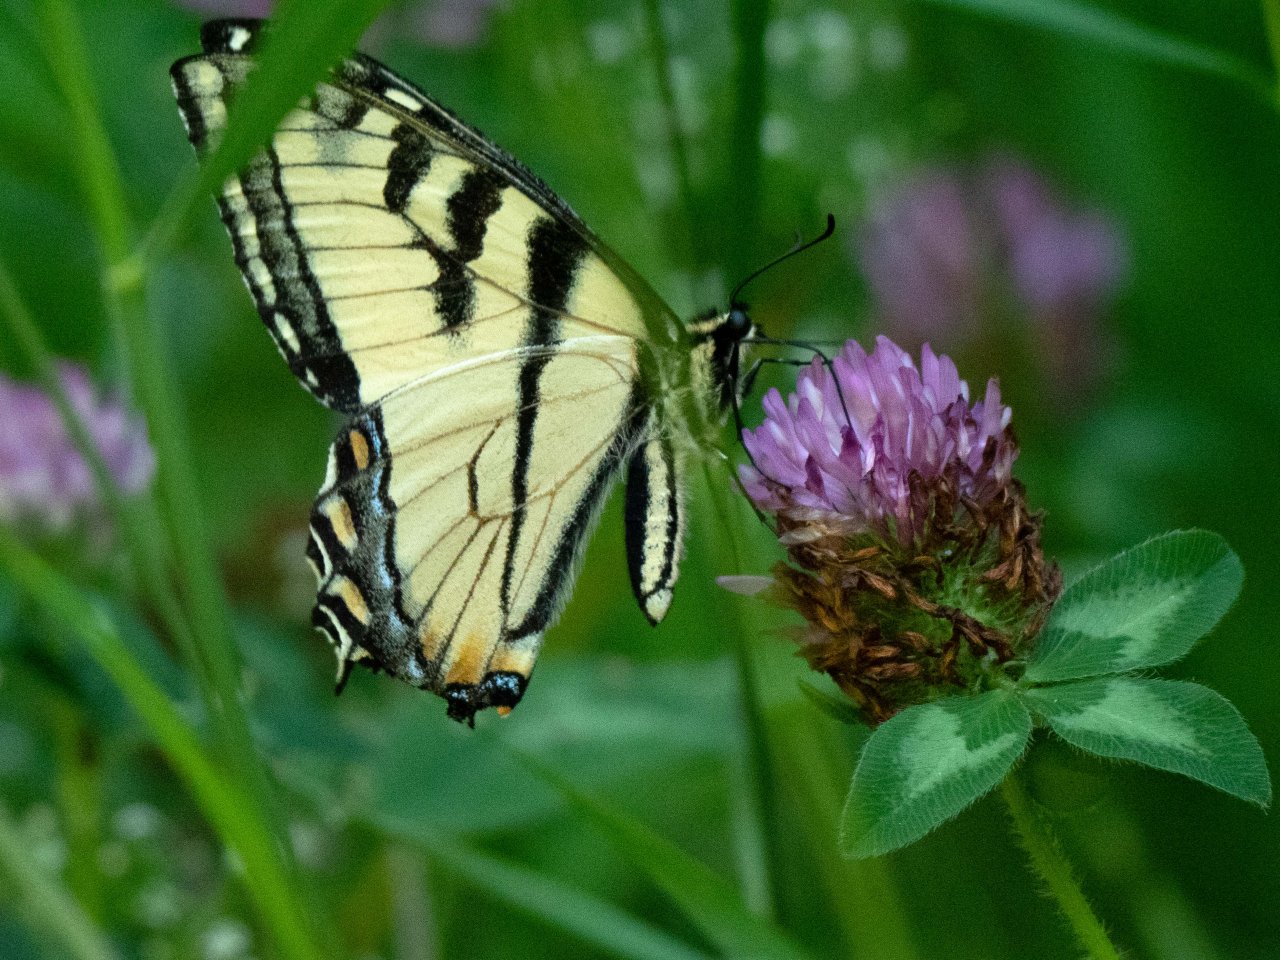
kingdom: Animalia
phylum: Arthropoda
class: Insecta
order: Lepidoptera
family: Papilionidae
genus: Pterourus
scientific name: Pterourus canadensis
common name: Canadian Tiger Swallowtail
